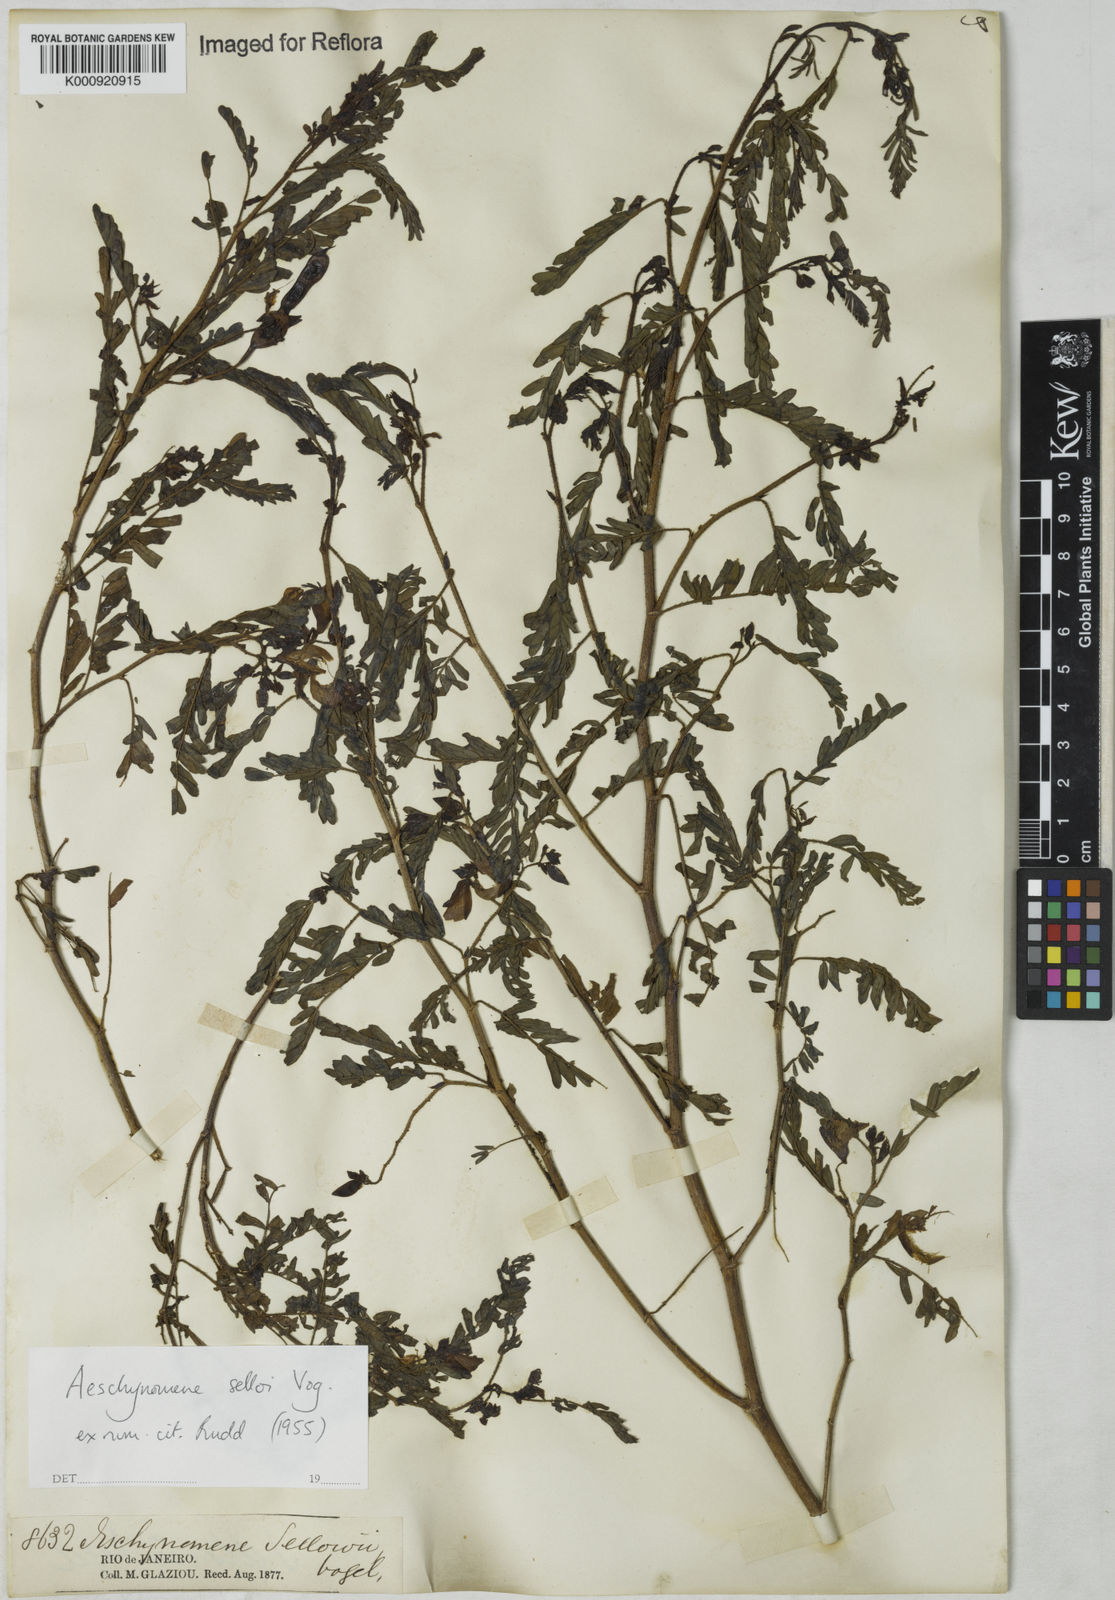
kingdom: Plantae
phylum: Tracheophyta
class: Magnoliopsida
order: Fabales
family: Fabaceae
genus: Centrosema
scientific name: Centrosema
